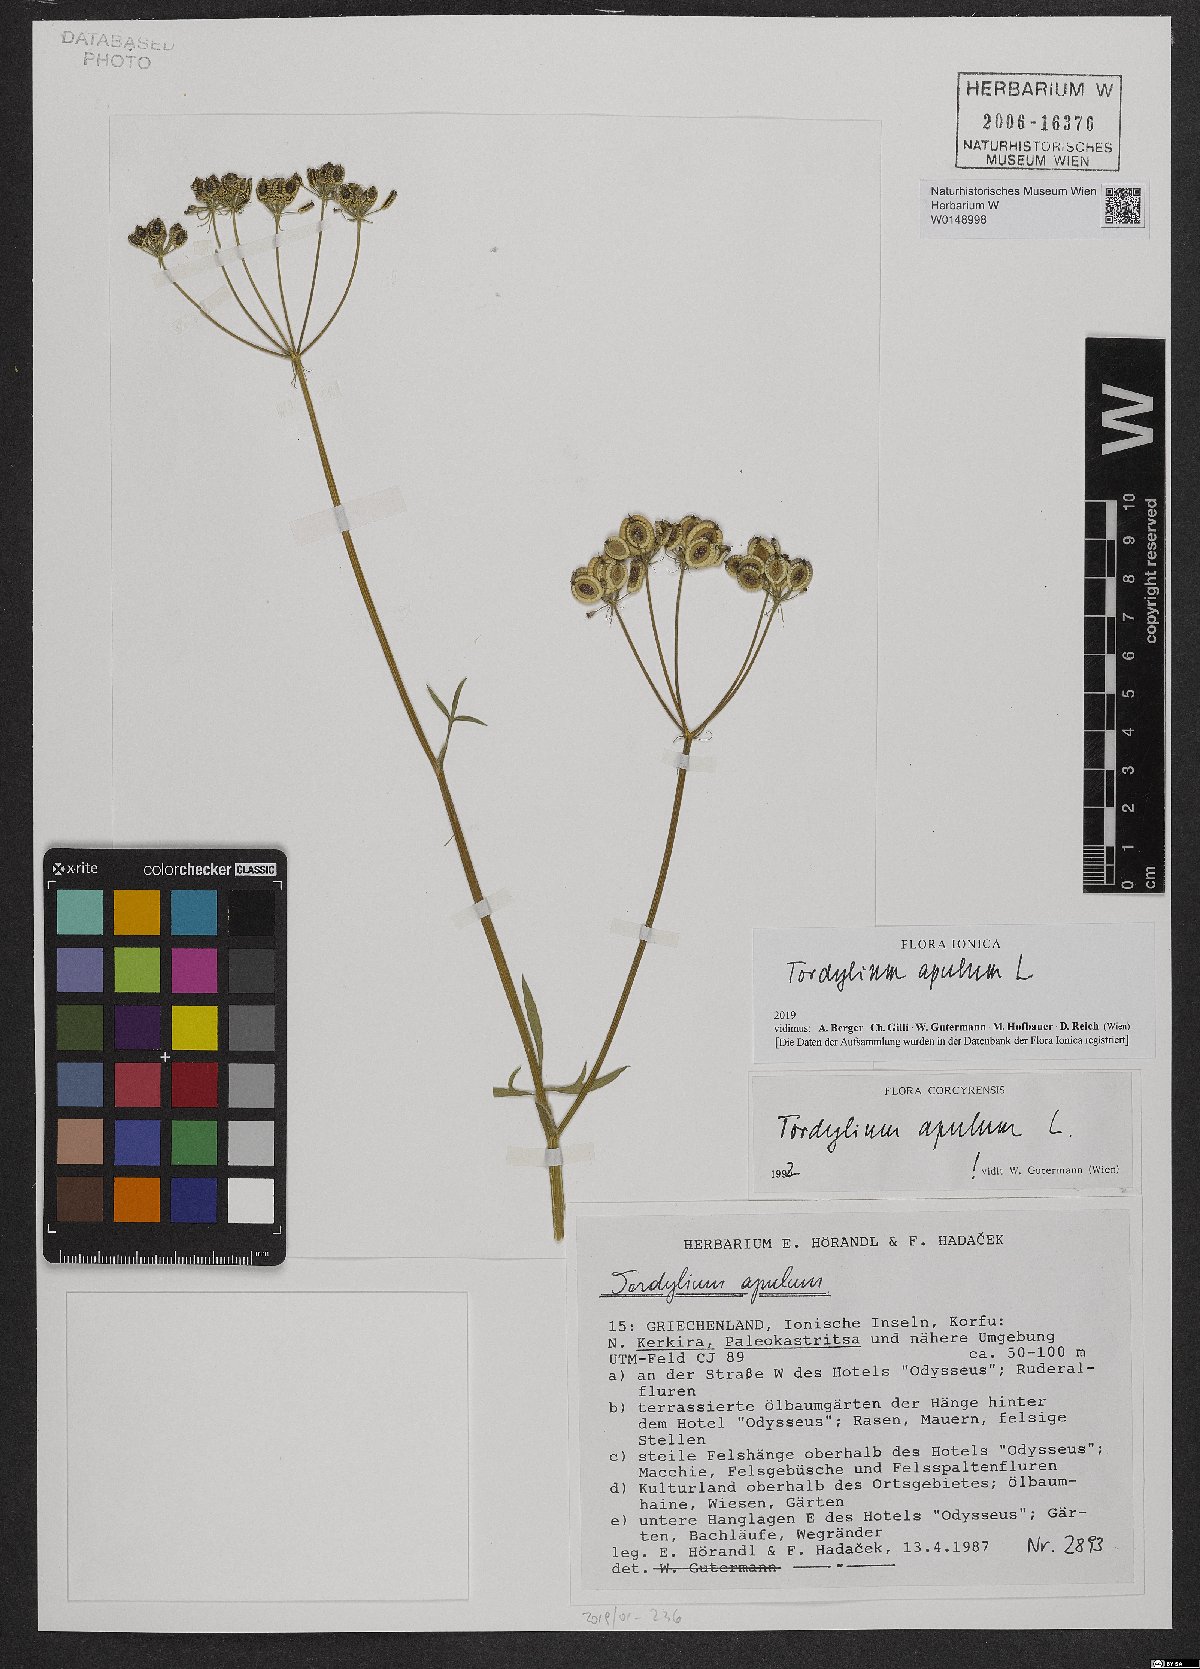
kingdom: Plantae
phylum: Tracheophyta
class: Magnoliopsida
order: Apiales
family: Apiaceae
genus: Tordylium
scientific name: Tordylium apulum
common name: Mediterranean hartwort
